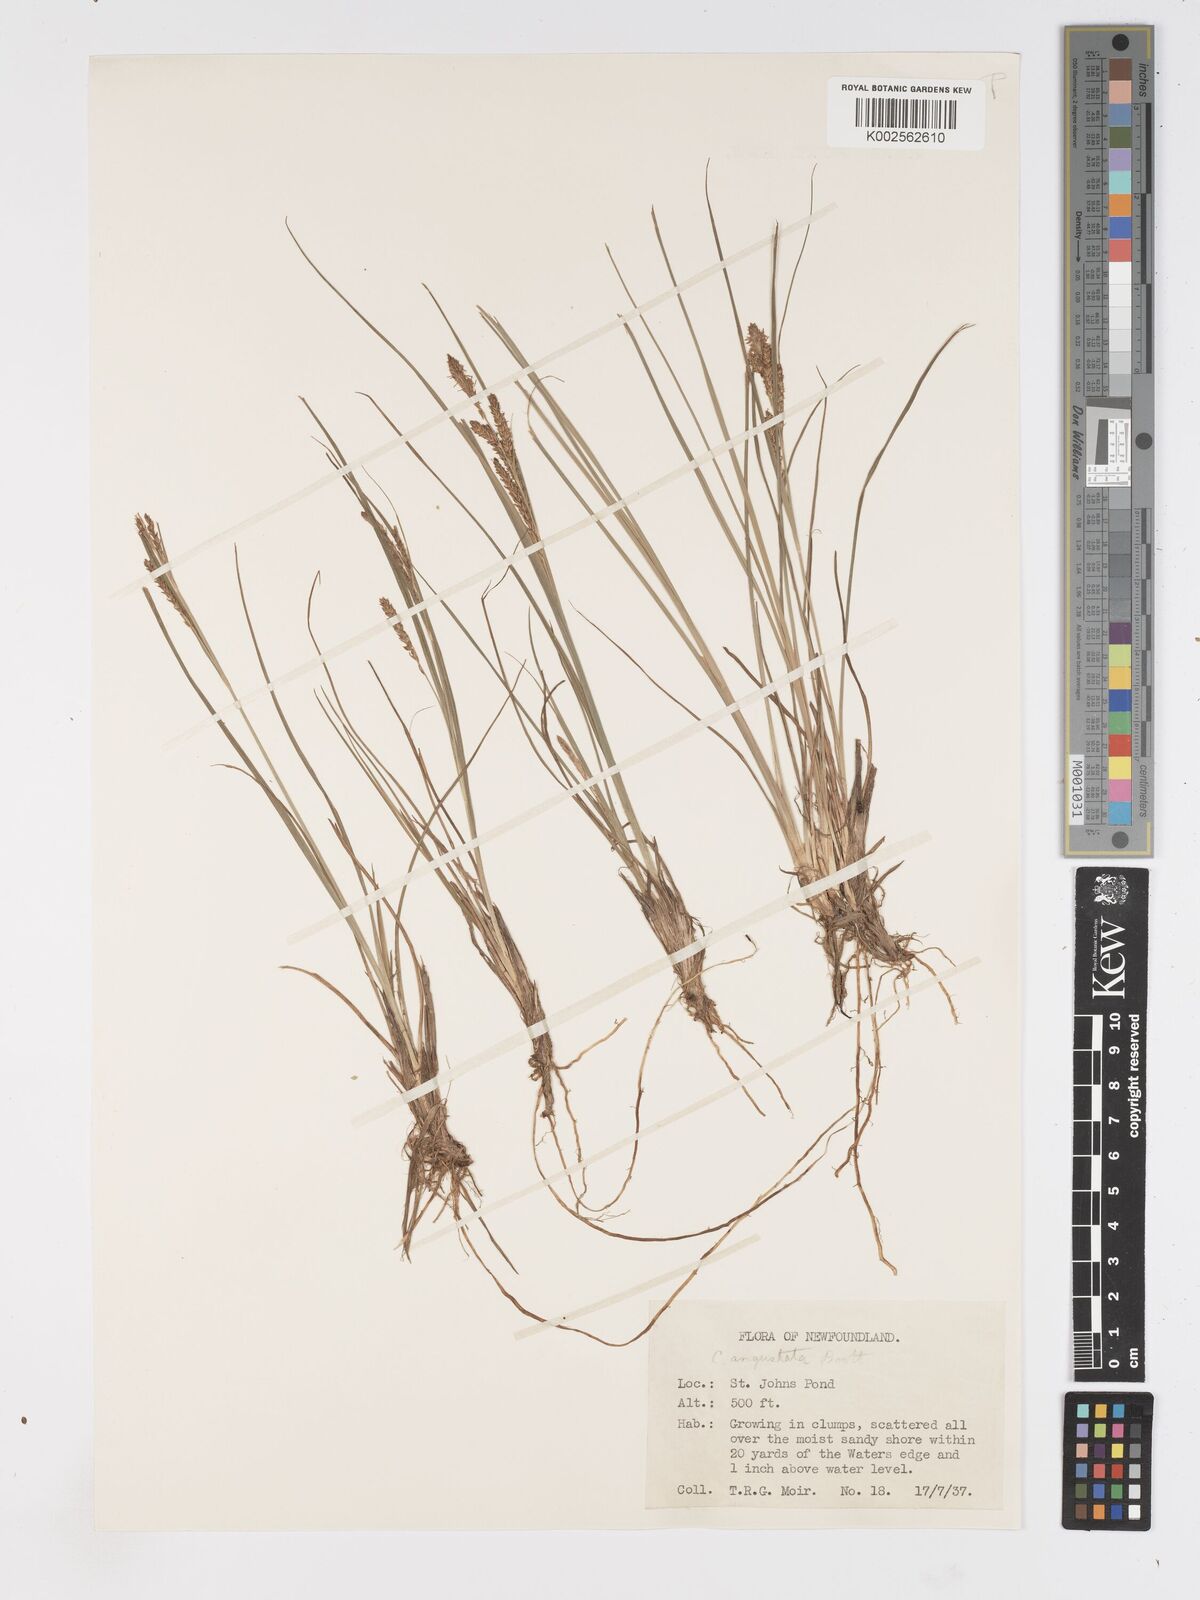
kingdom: Plantae
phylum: Tracheophyta
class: Liliopsida
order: Poales
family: Cyperaceae
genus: Carex
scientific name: Carex stricta
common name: Hummock sedge
